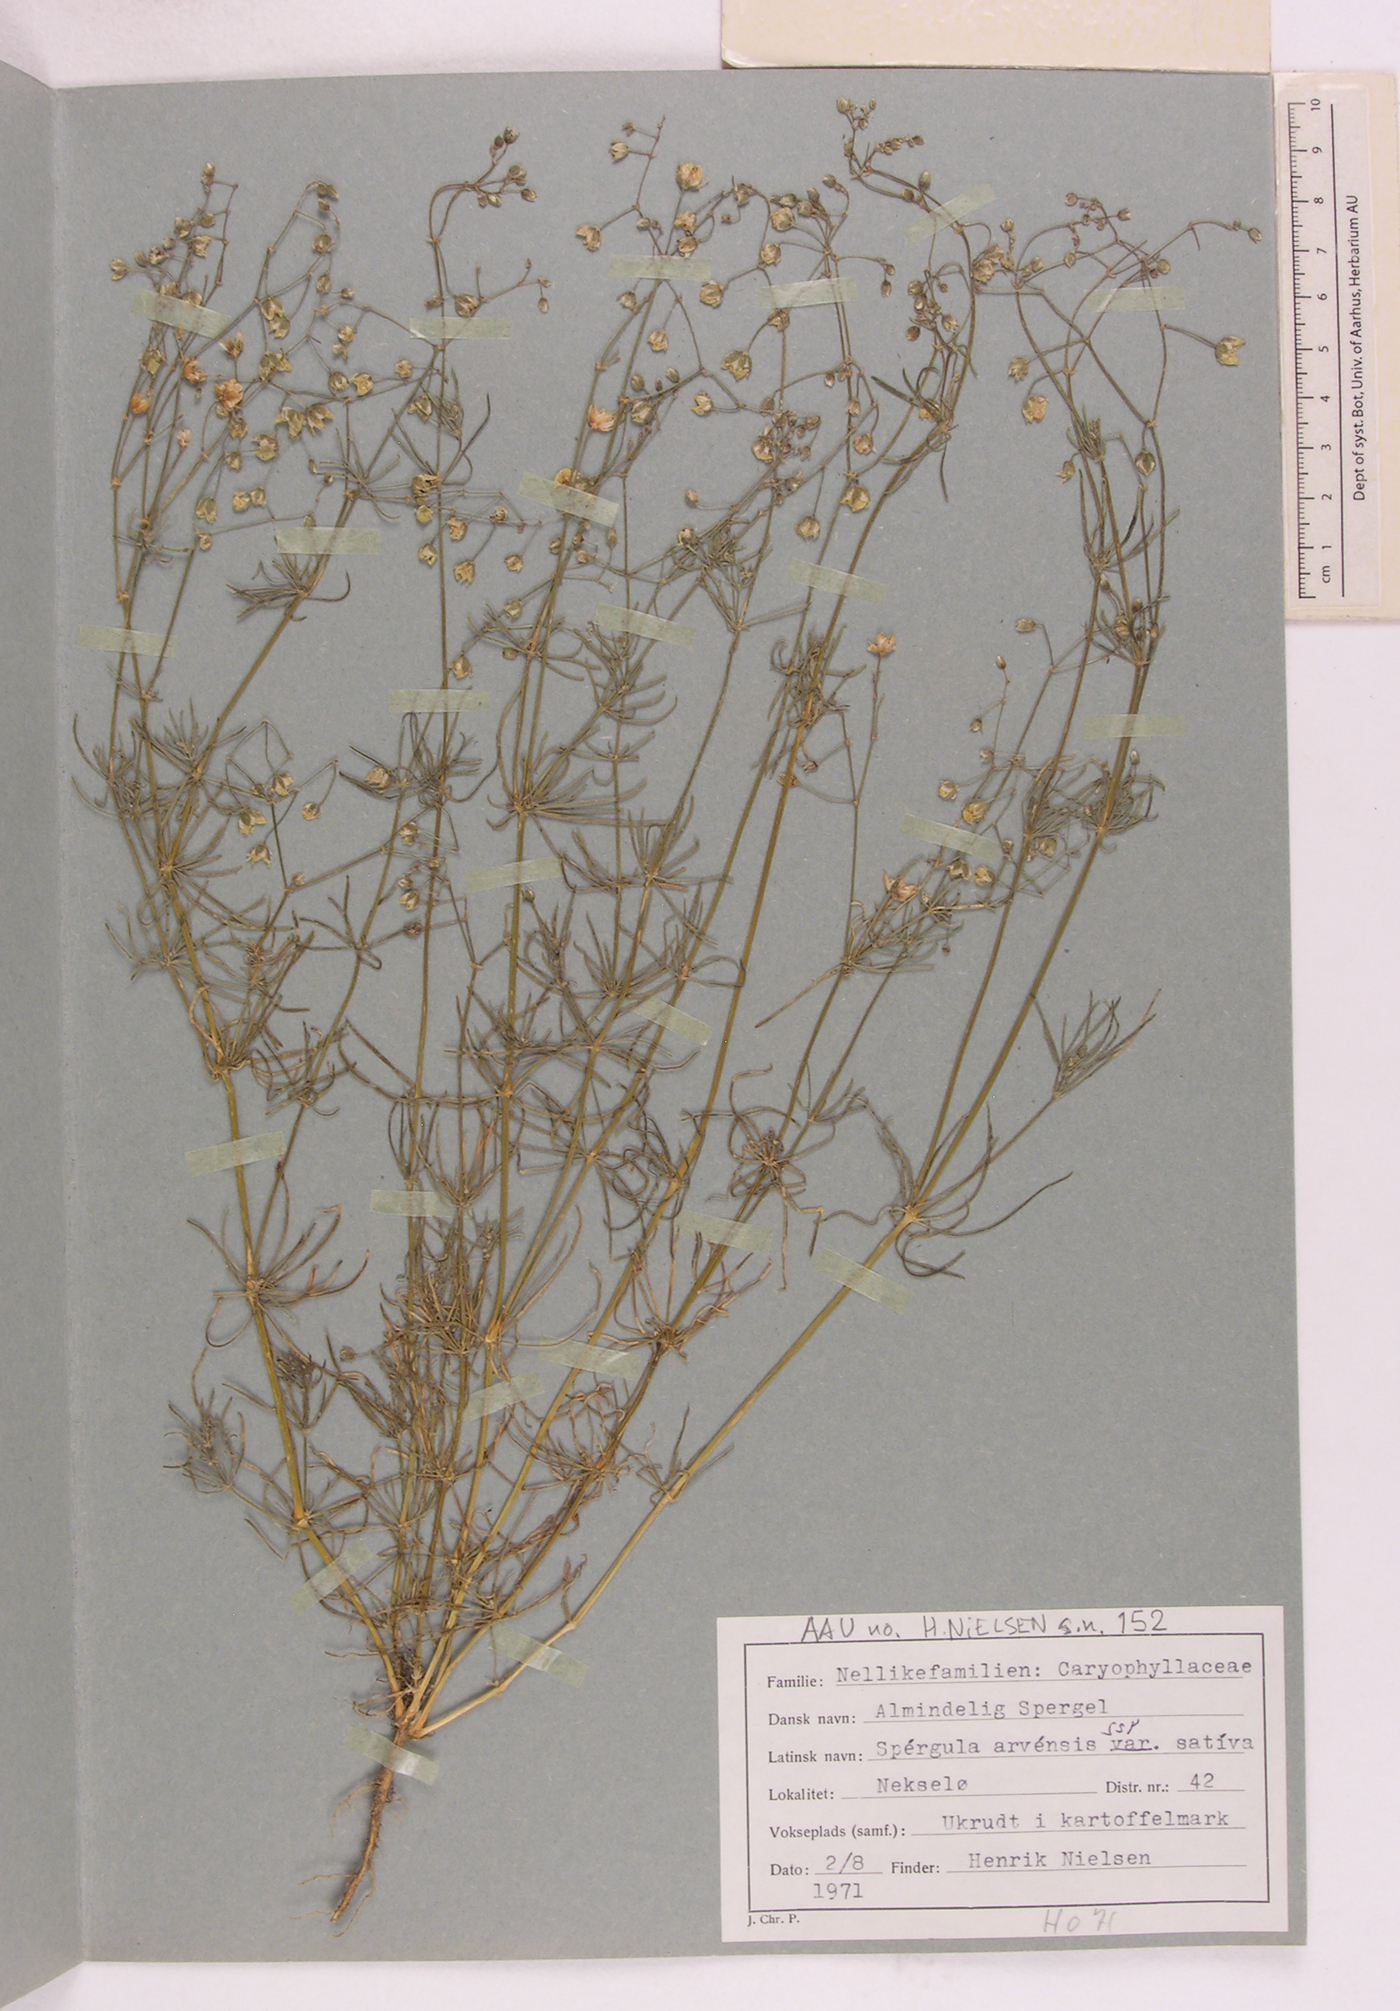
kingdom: Plantae
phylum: Tracheophyta
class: Magnoliopsida
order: Caryophyllales
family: Caryophyllaceae
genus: Spergula
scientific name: Spergula arvensis
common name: Corn spurrey
